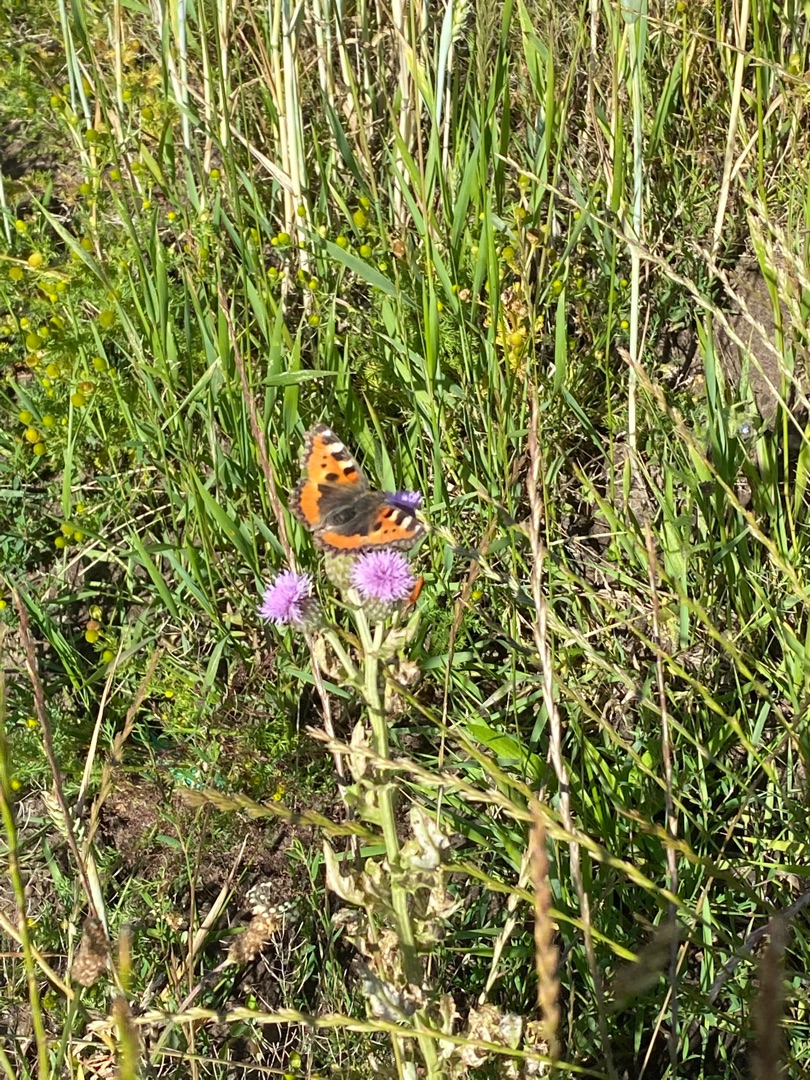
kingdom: Animalia
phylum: Arthropoda
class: Insecta
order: Lepidoptera
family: Nymphalidae
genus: Aglais
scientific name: Aglais urticae
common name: Nældens takvinge
